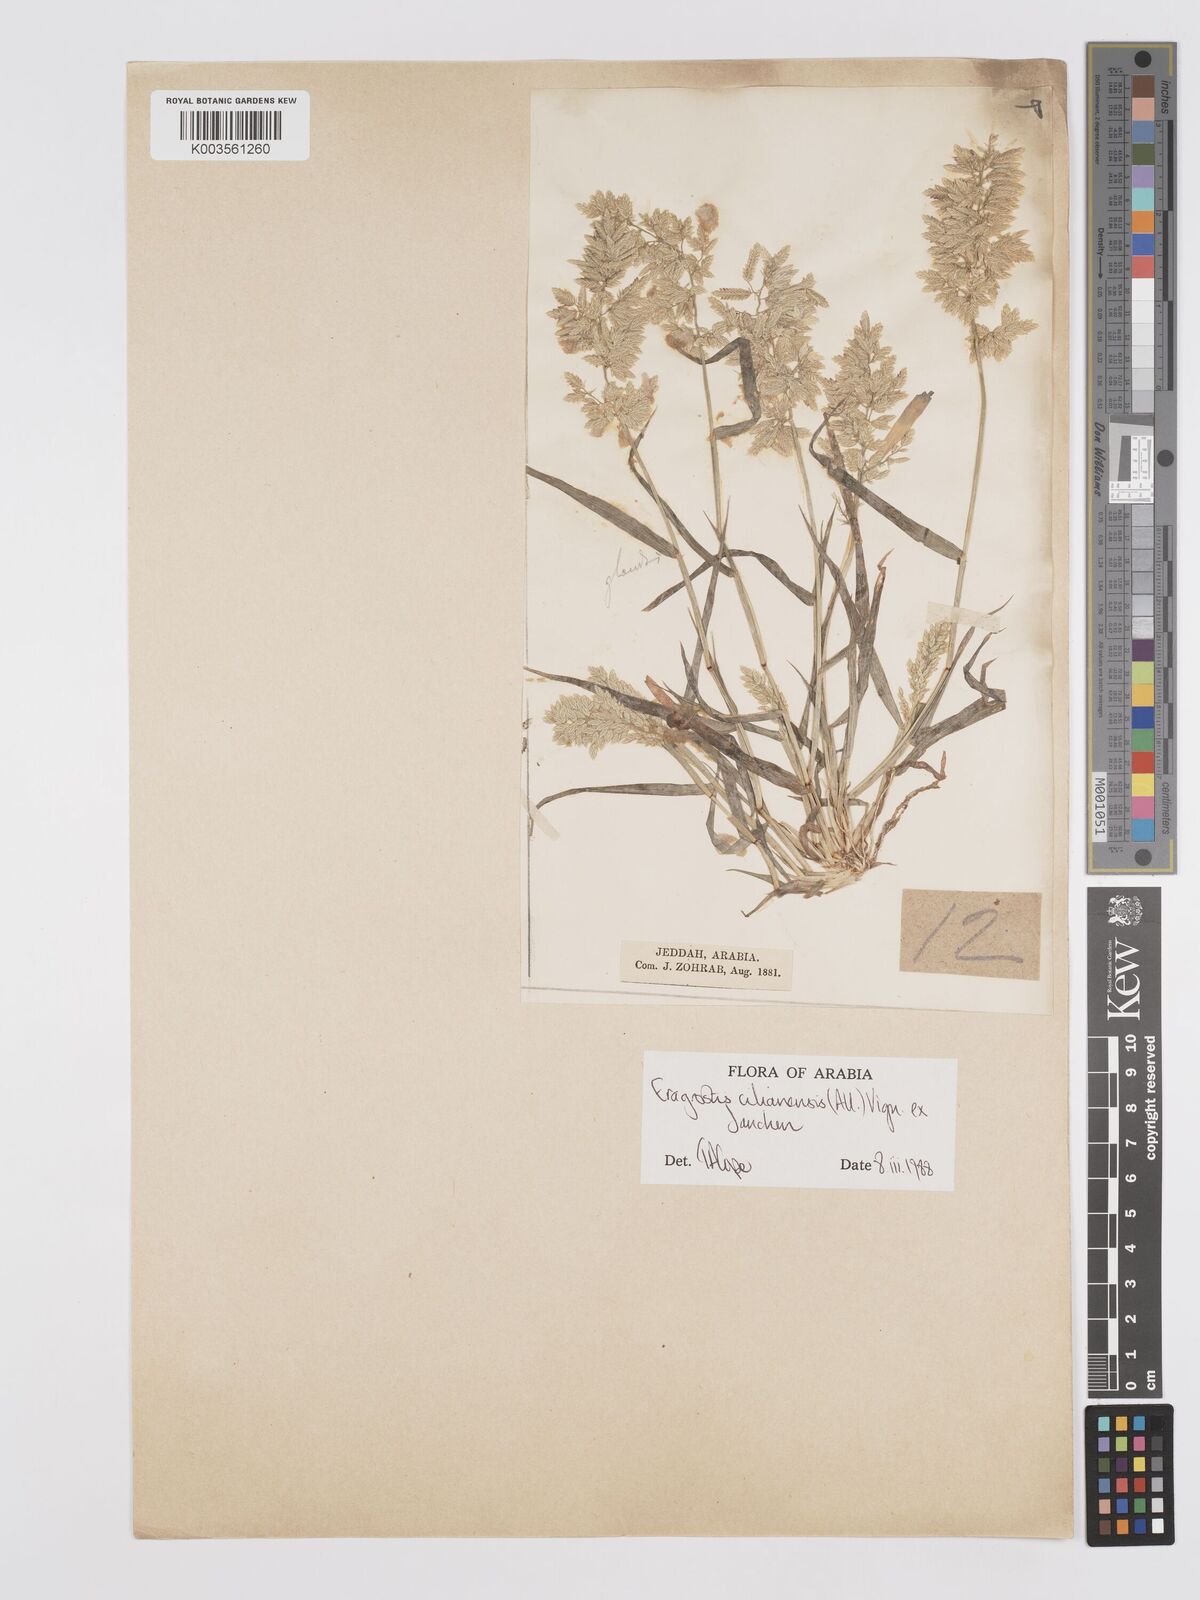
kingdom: Plantae
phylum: Tracheophyta
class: Liliopsida
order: Poales
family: Poaceae
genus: Eragrostis
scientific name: Eragrostis cilianensis
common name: Stinkgrass
